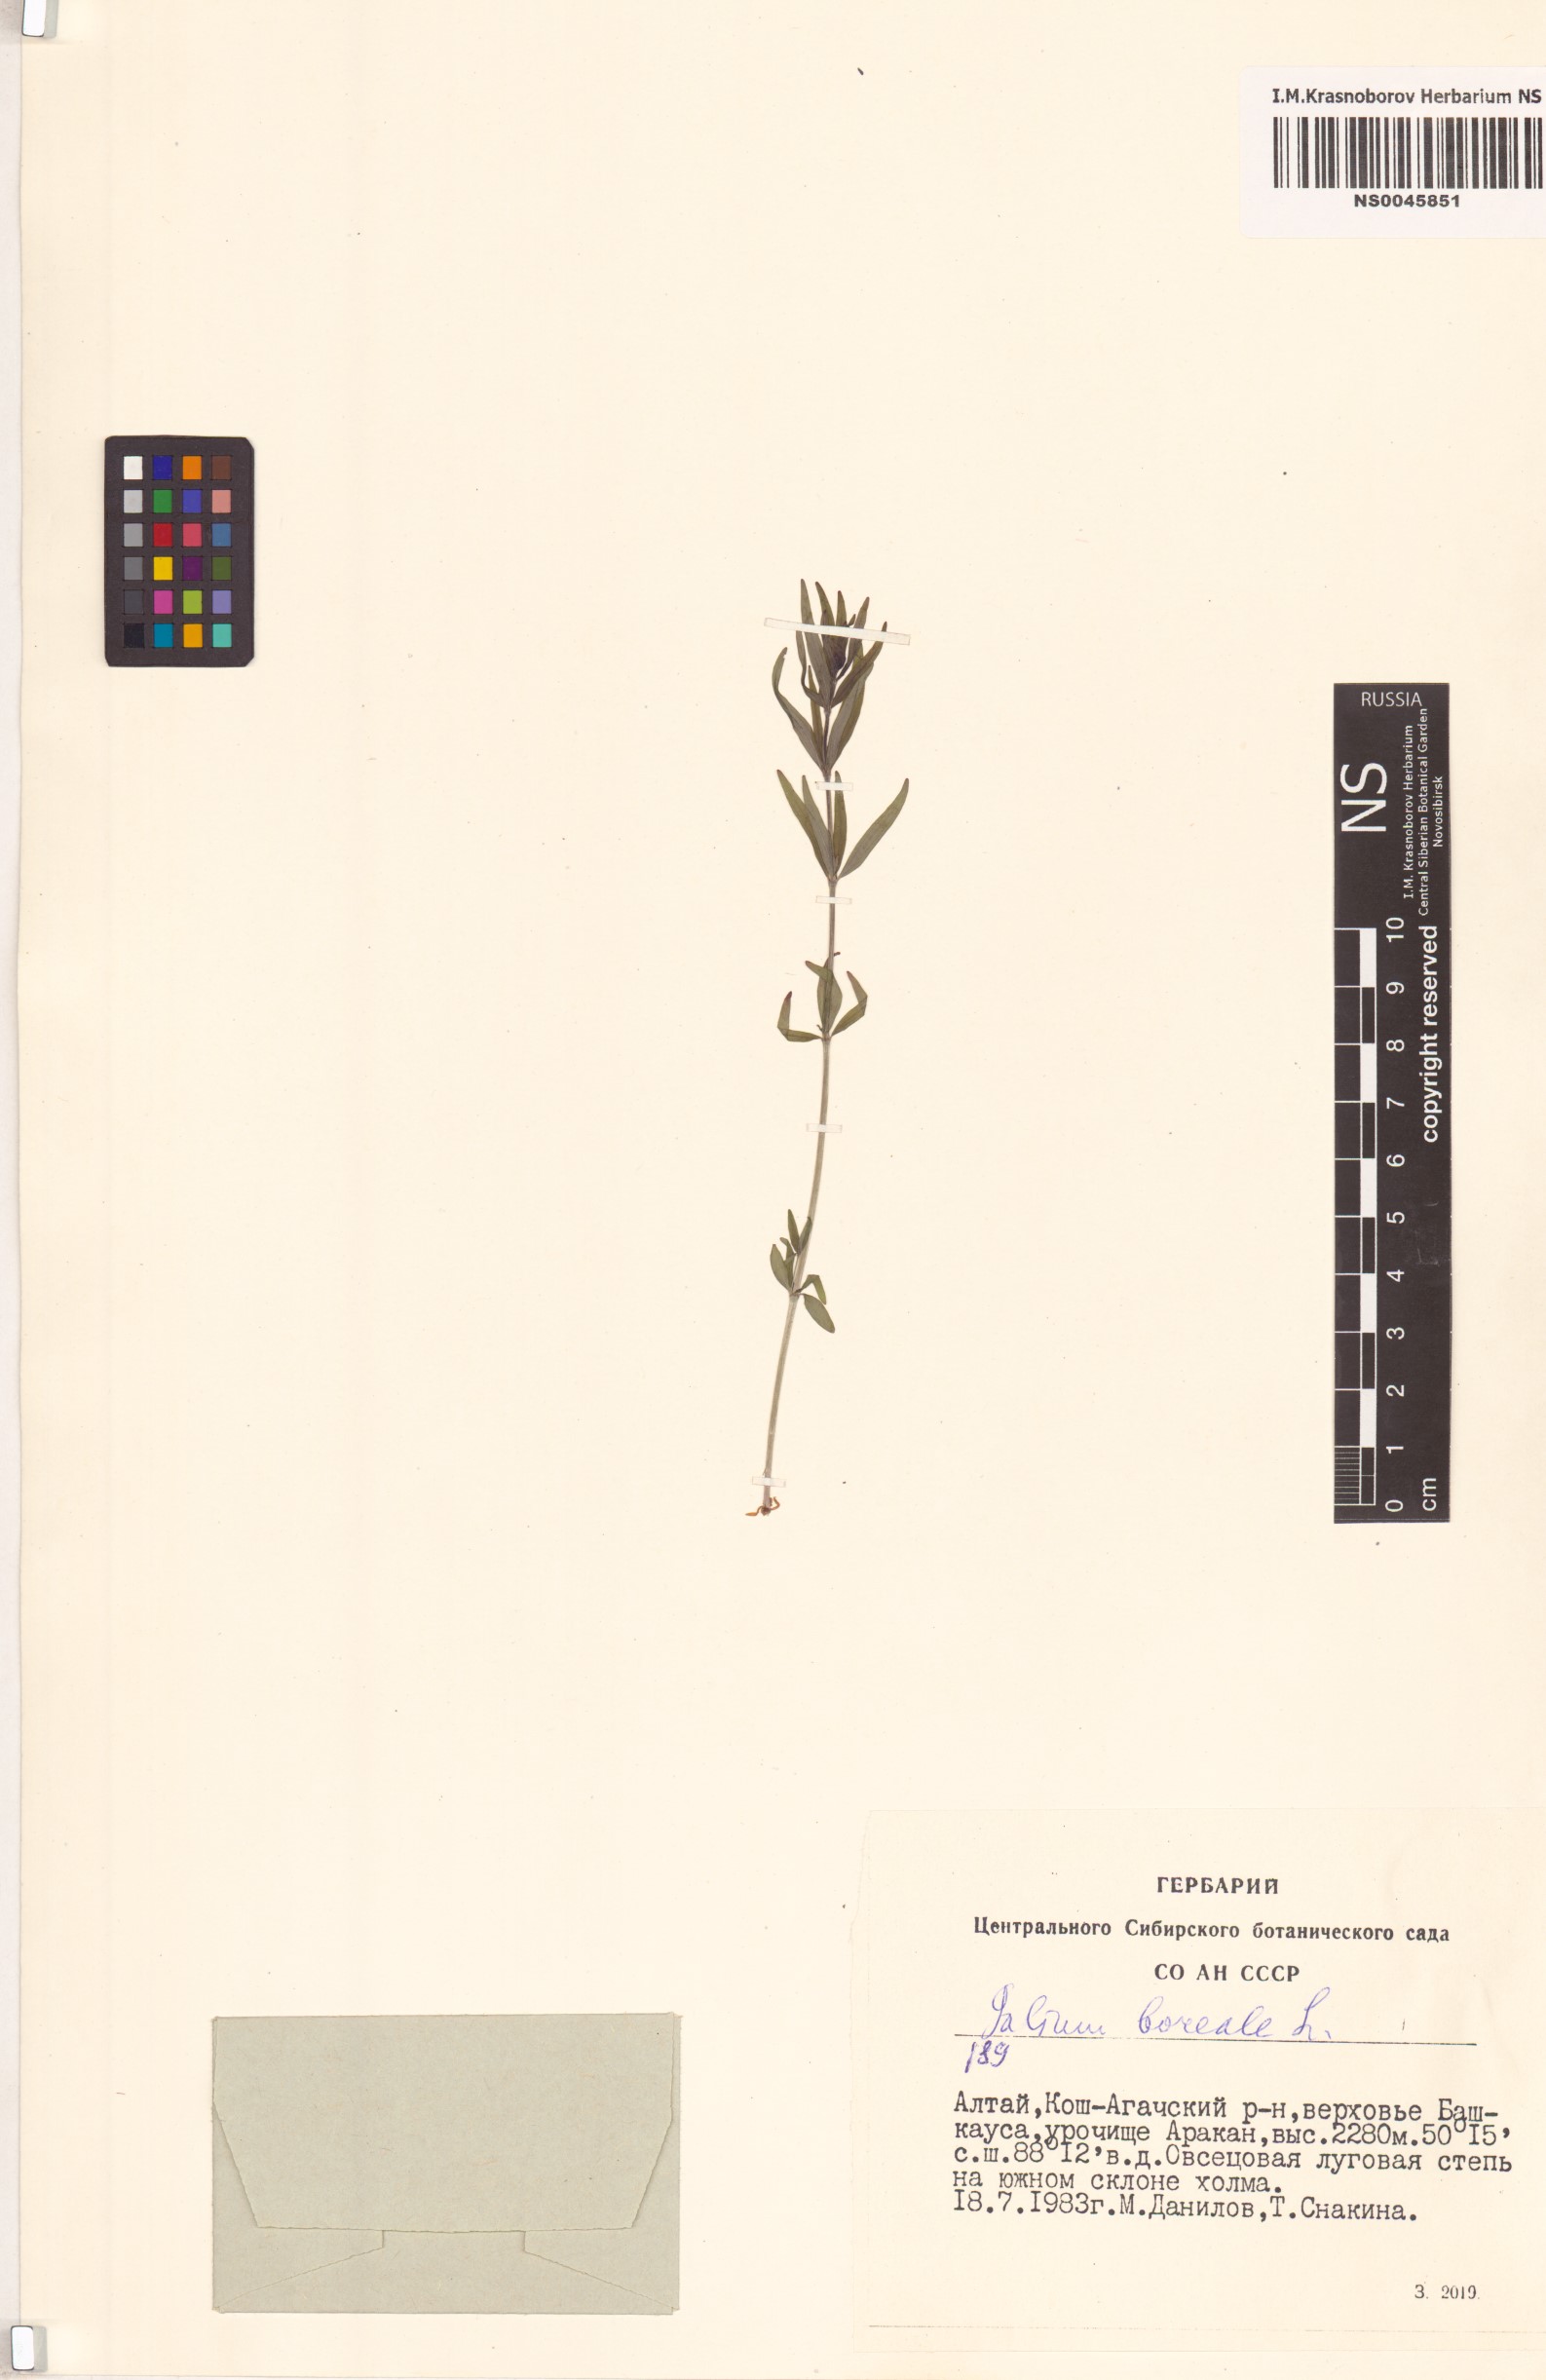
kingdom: Plantae
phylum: Tracheophyta
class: Magnoliopsida
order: Gentianales
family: Rubiaceae
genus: Galium
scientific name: Galium boreale
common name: Northern bedstraw
